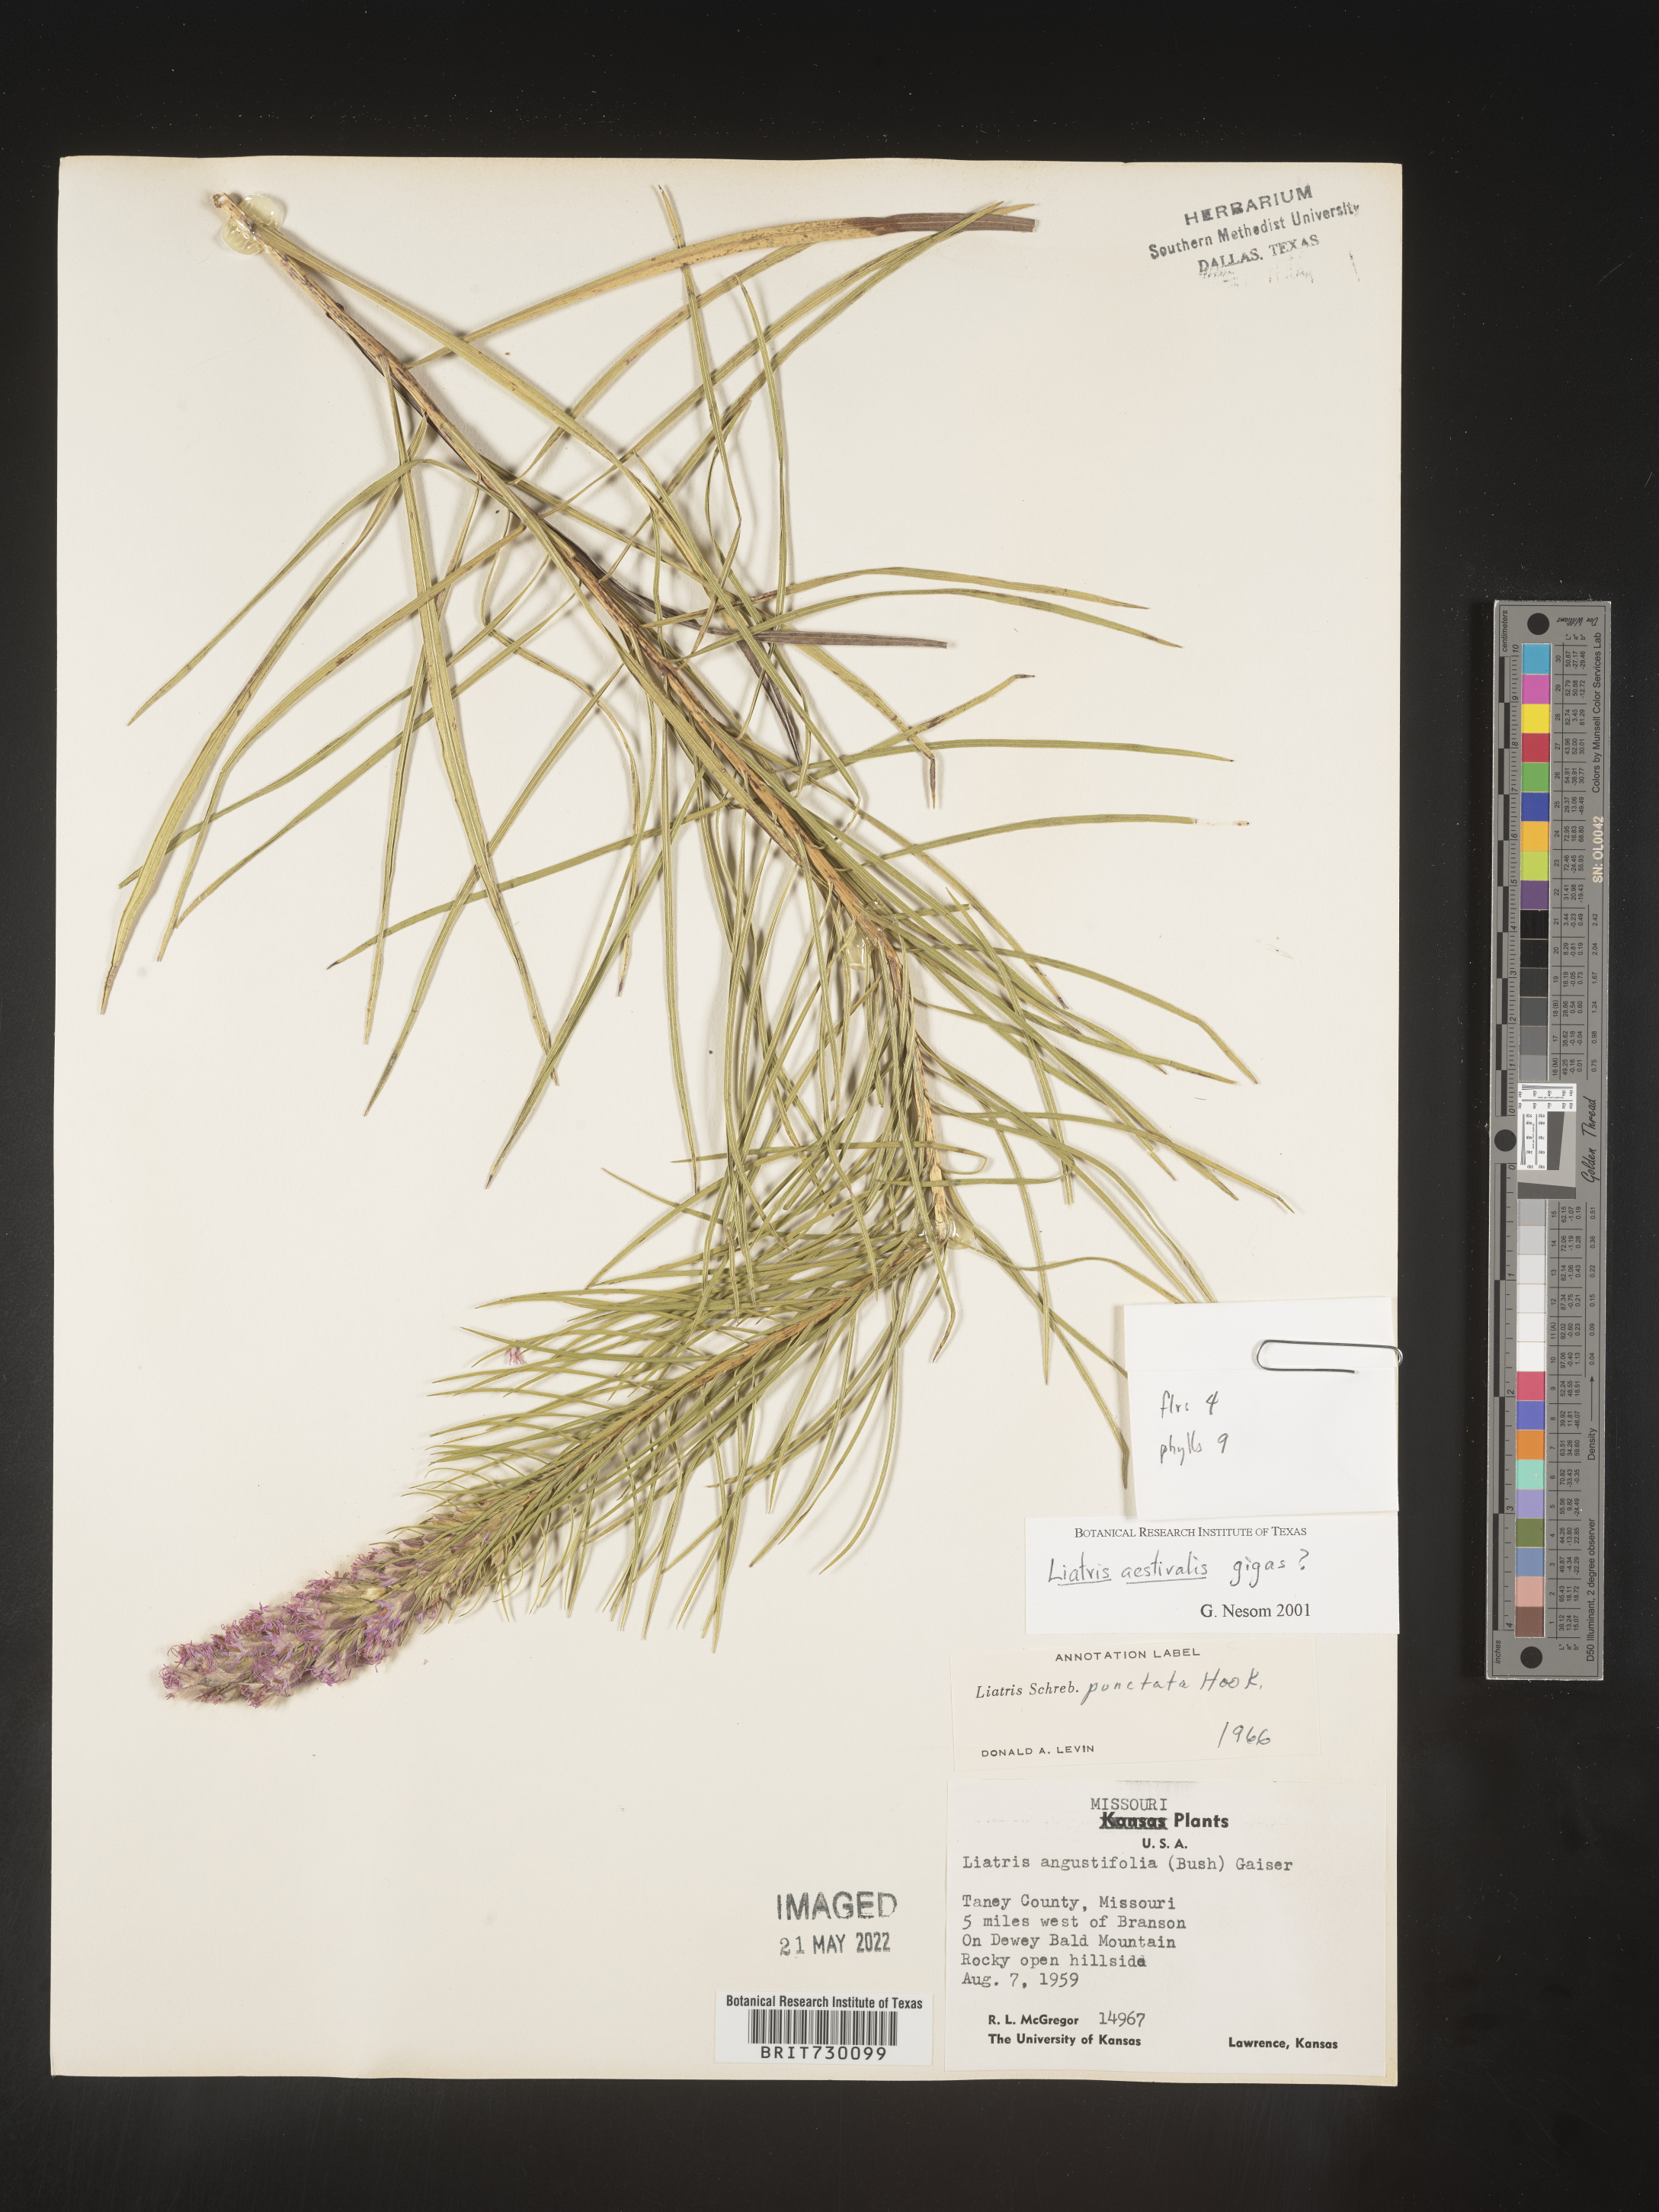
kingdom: Plantae
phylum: Tracheophyta
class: Magnoliopsida
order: Asterales
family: Asteraceae
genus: Liatris
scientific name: Liatris aestivalis
